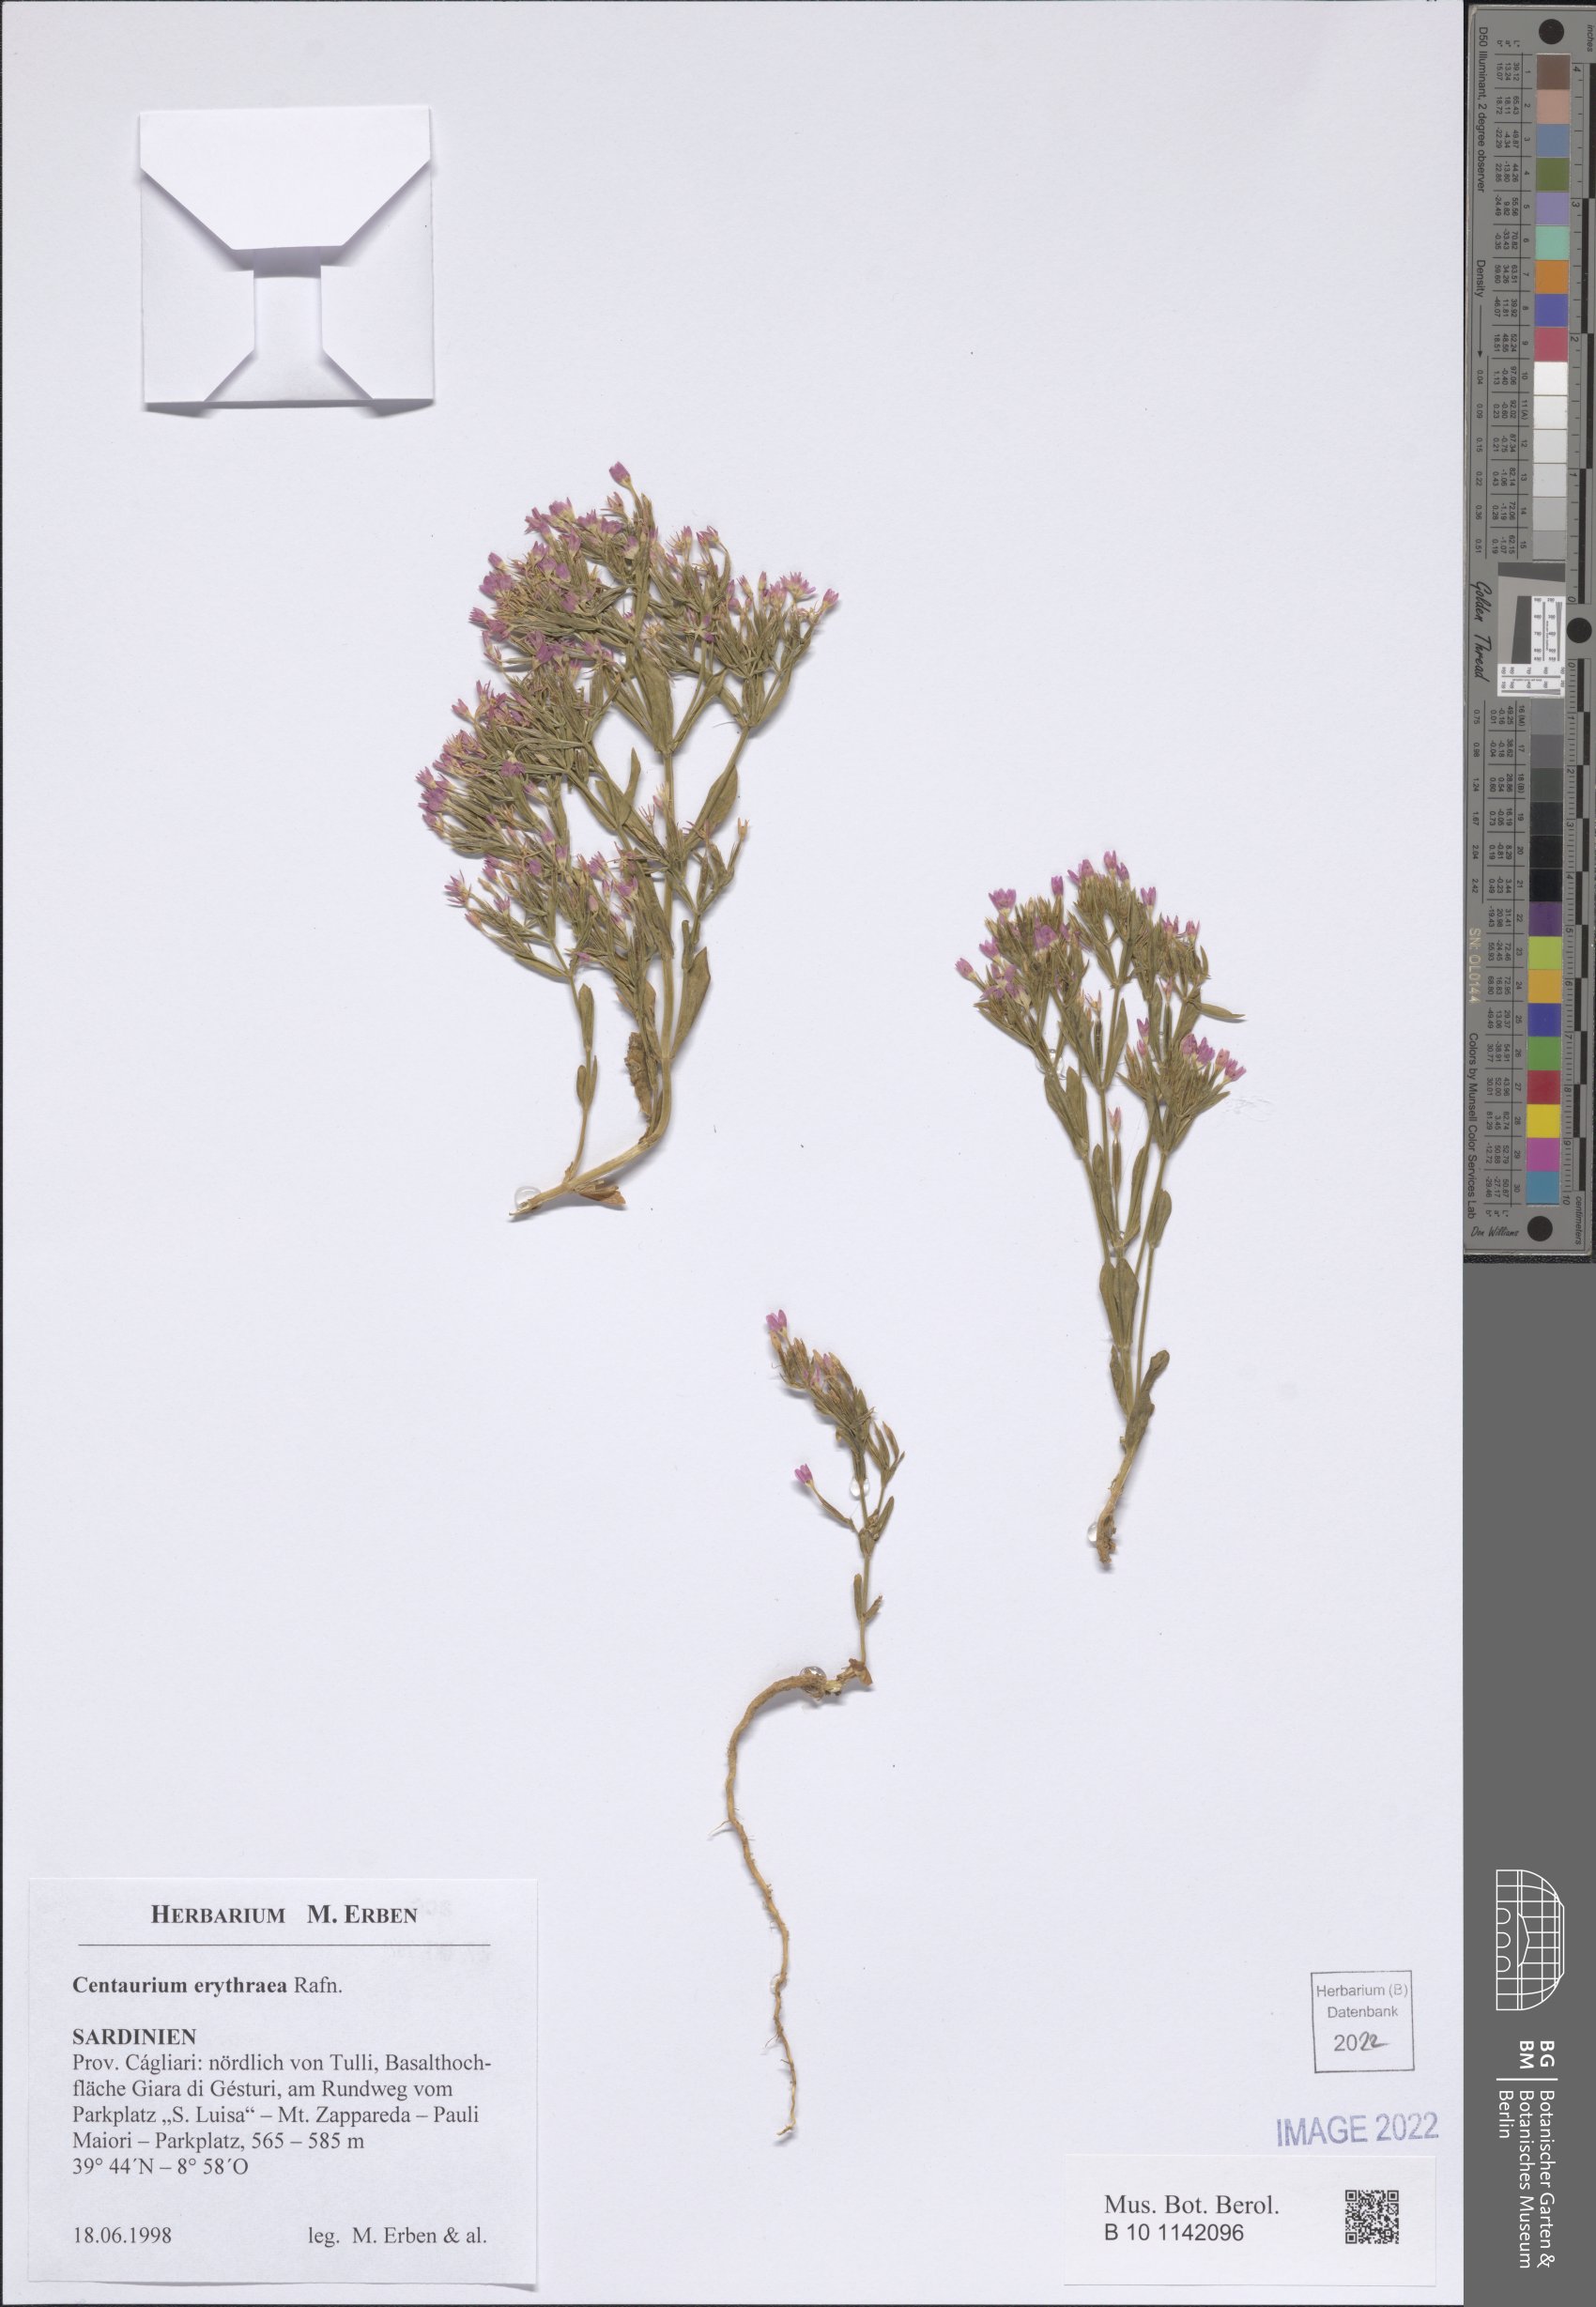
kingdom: Plantae
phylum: Tracheophyta
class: Magnoliopsida
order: Gentianales
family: Gentianaceae
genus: Centaurium
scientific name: Centaurium erythraea
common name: Common centaury
